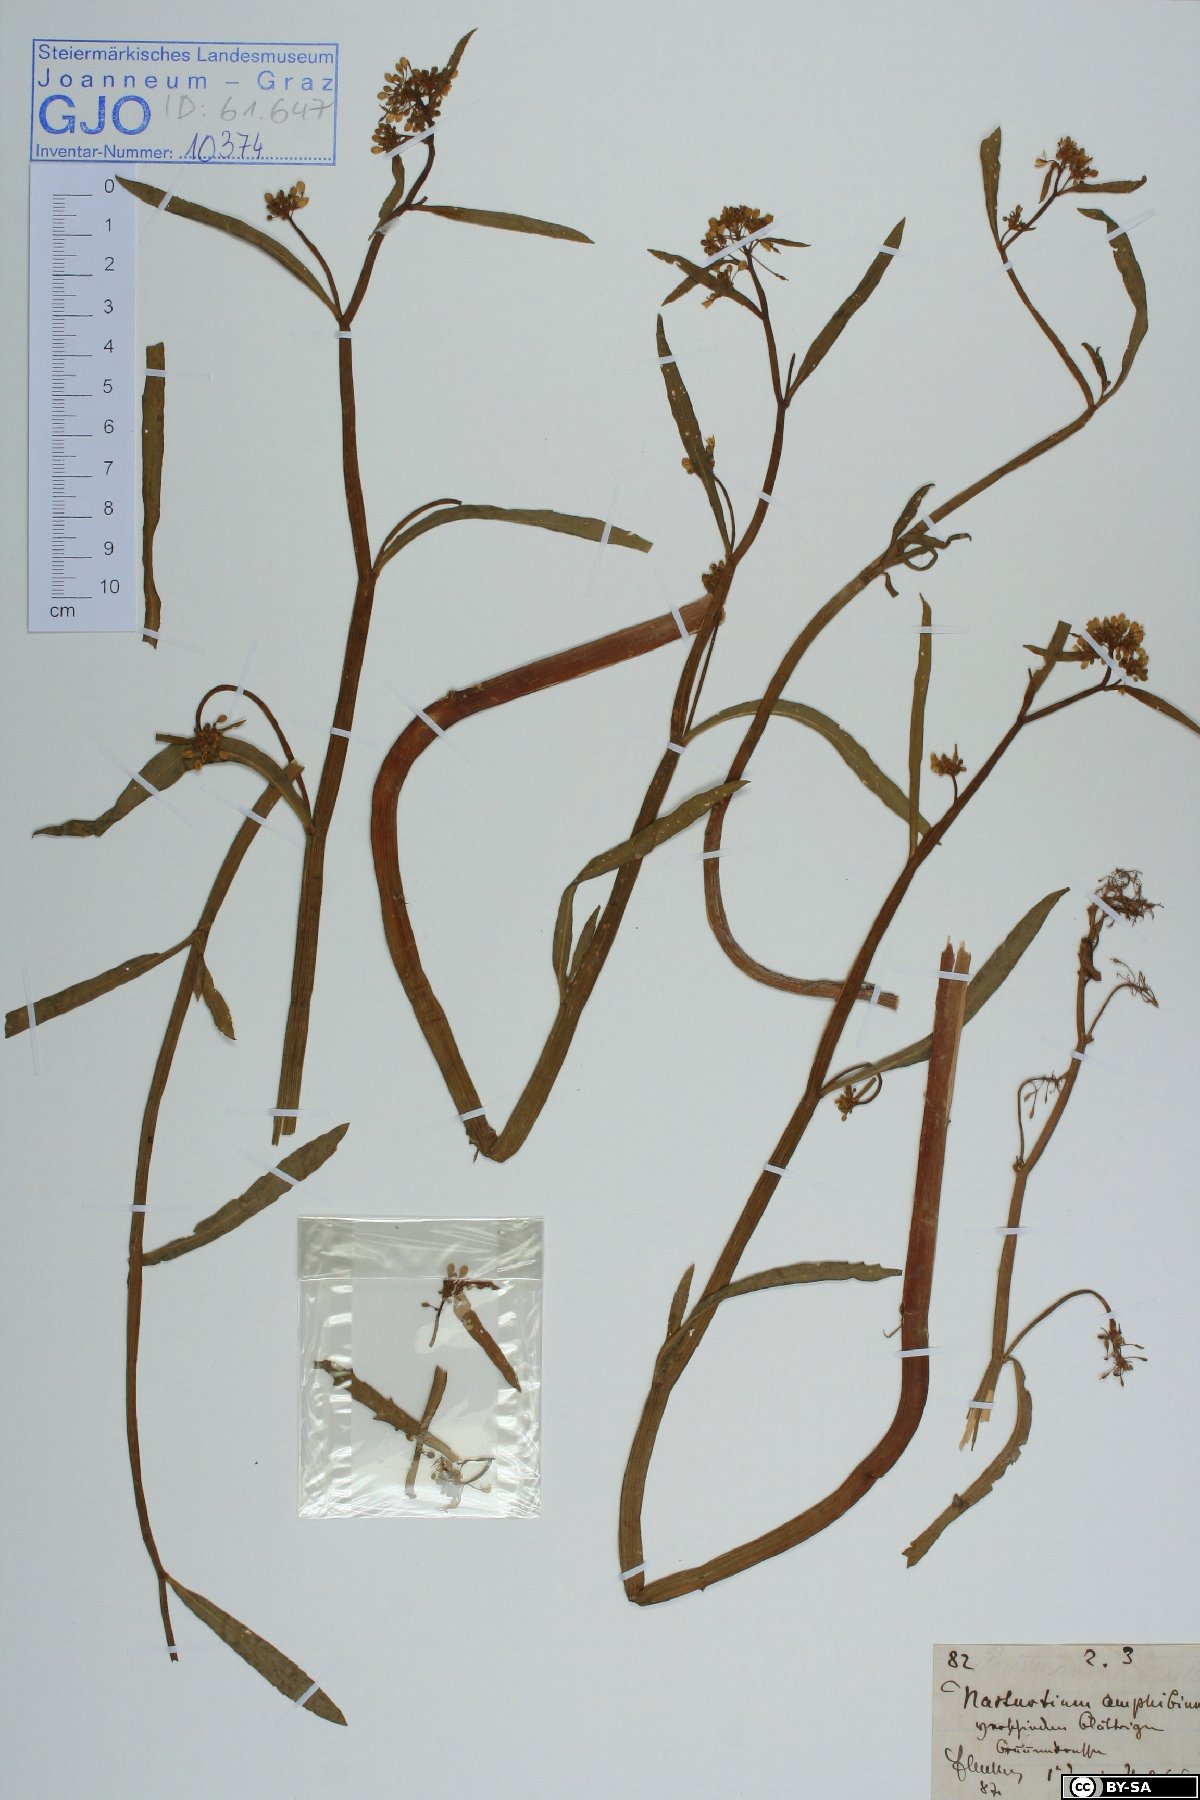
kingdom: Plantae
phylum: Tracheophyta
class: Magnoliopsida
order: Brassicales
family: Brassicaceae
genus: Rorippa
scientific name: Rorippa amphibia
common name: Great yellow-cress
